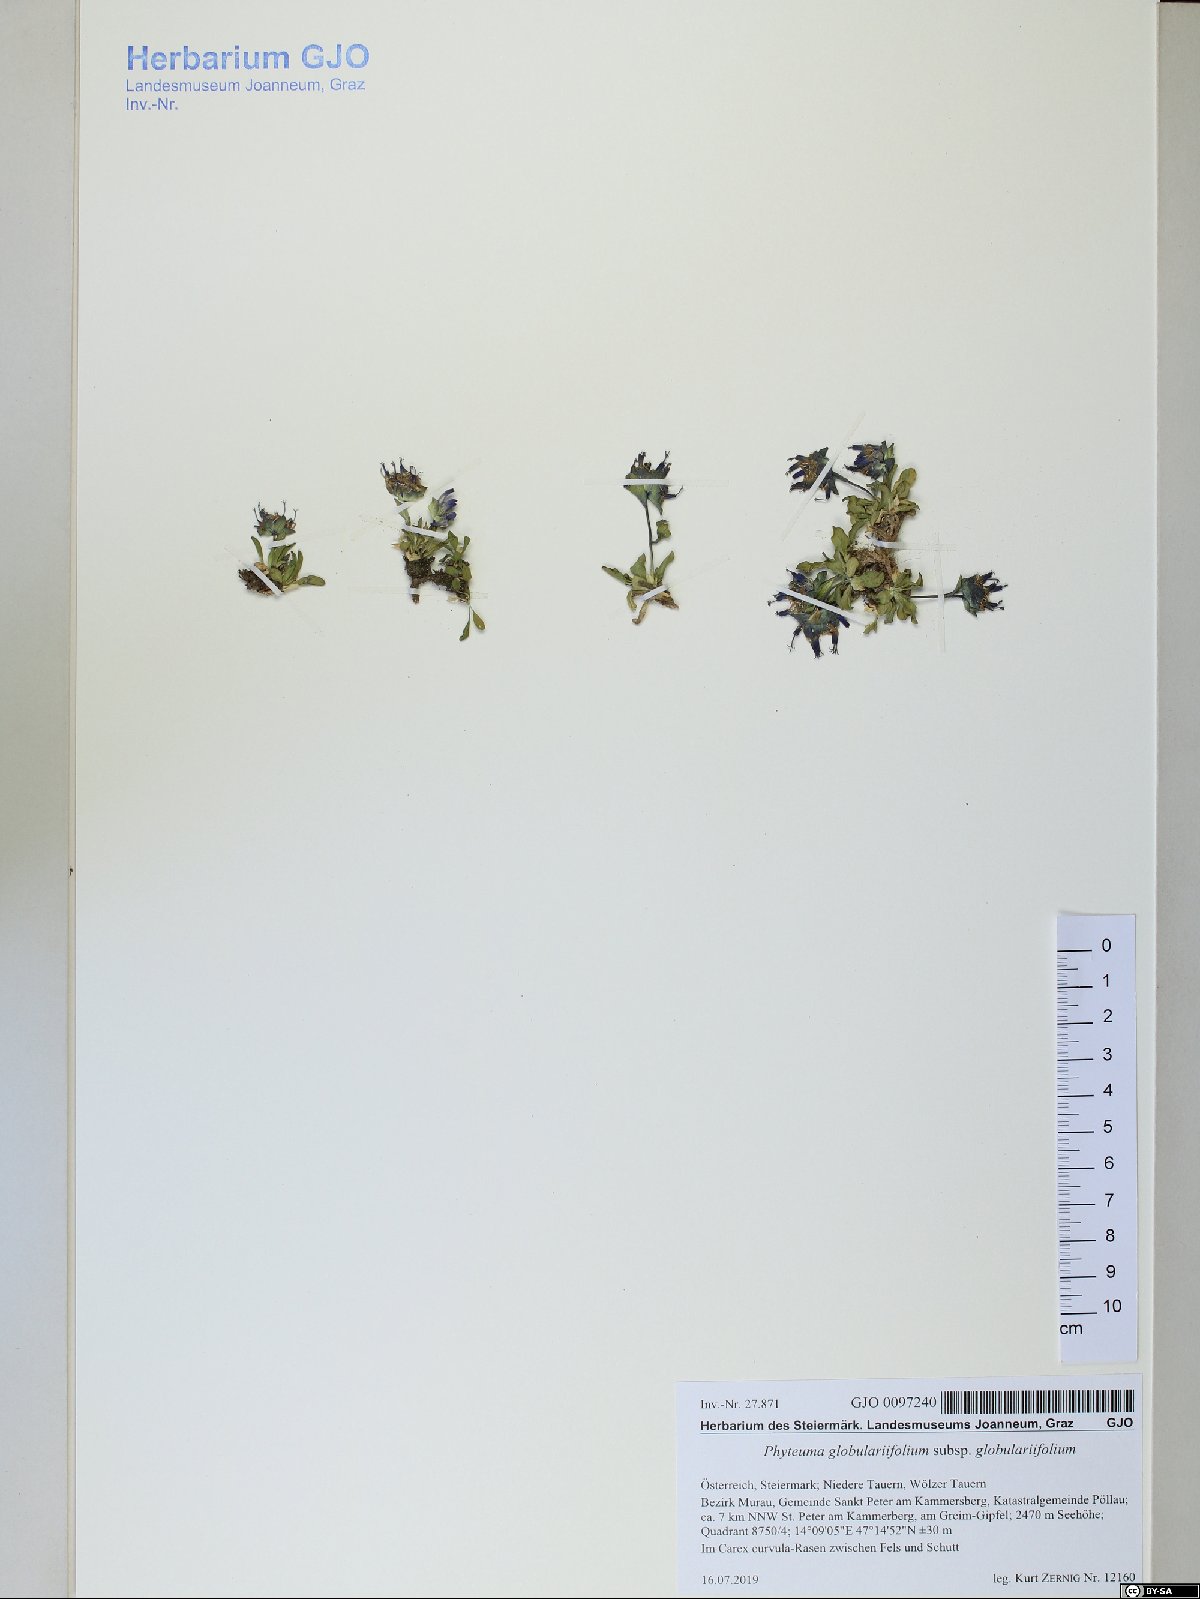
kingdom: Plantae
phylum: Tracheophyta
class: Magnoliopsida
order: Asterales
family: Campanulaceae
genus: Phyteuma
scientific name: Phyteuma globulariifolium
